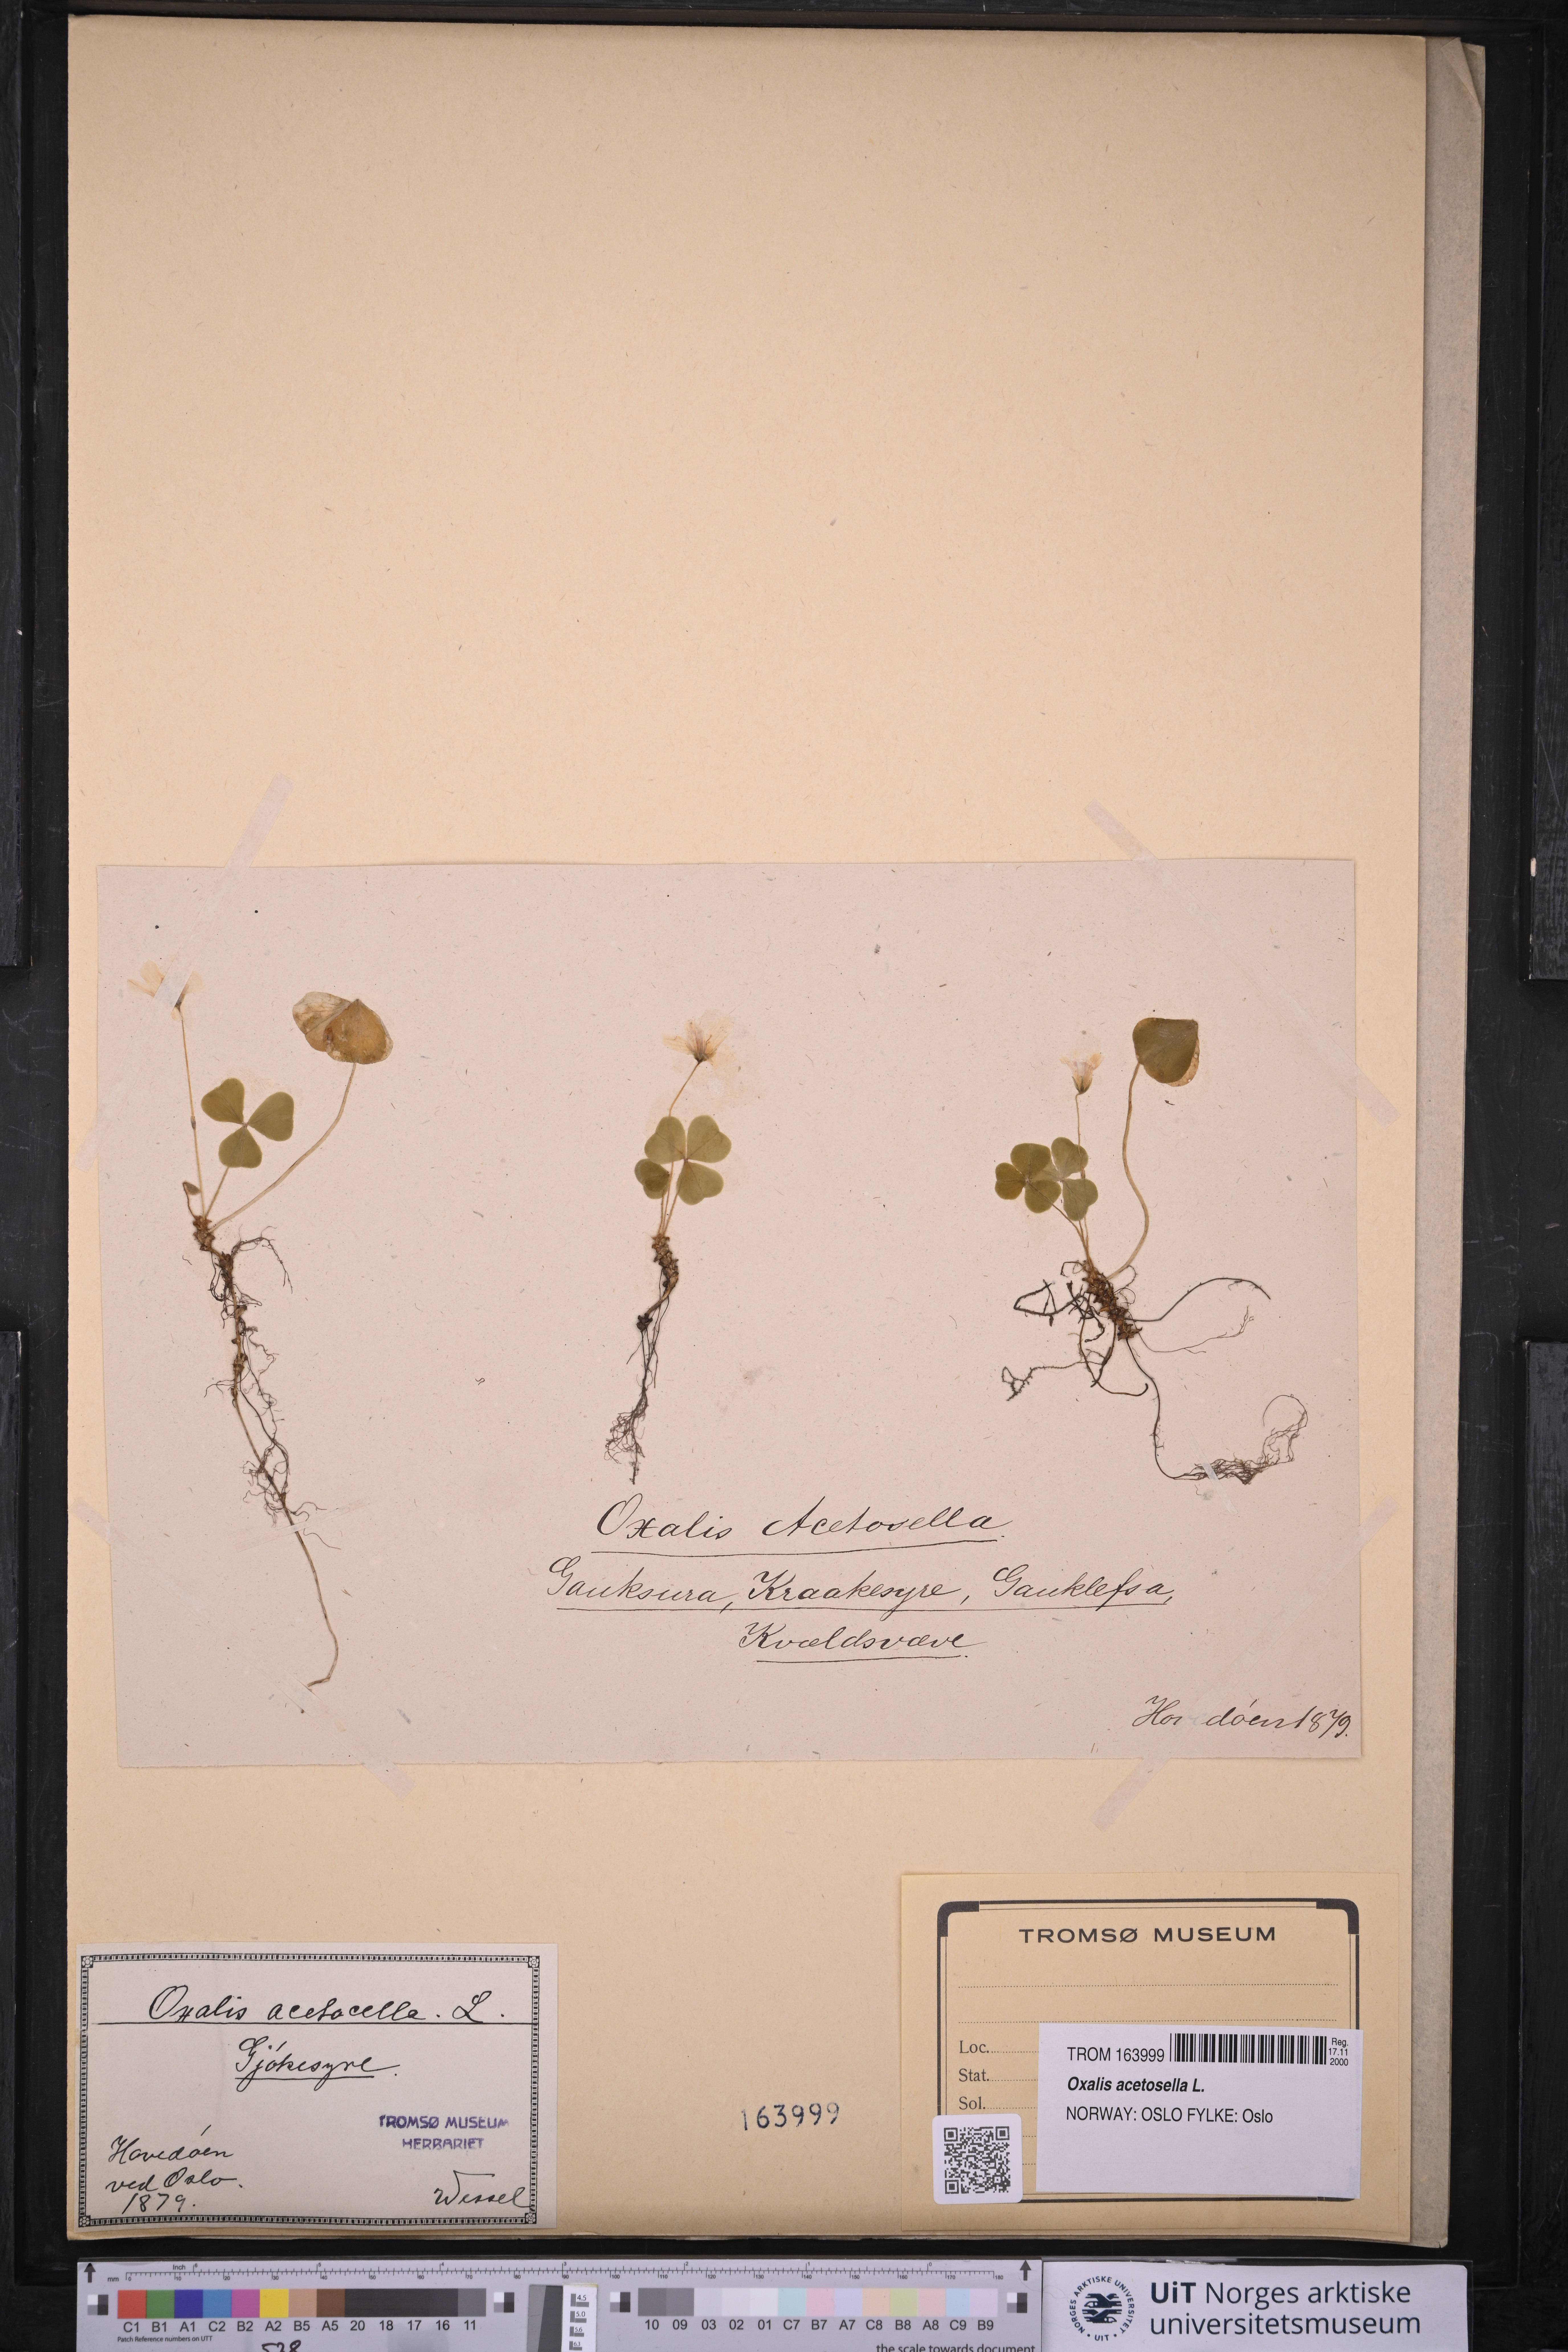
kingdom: Plantae
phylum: Tracheophyta
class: Magnoliopsida
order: Oxalidales
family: Oxalidaceae
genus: Oxalis
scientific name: Oxalis acetosella
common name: Wood-sorrel
